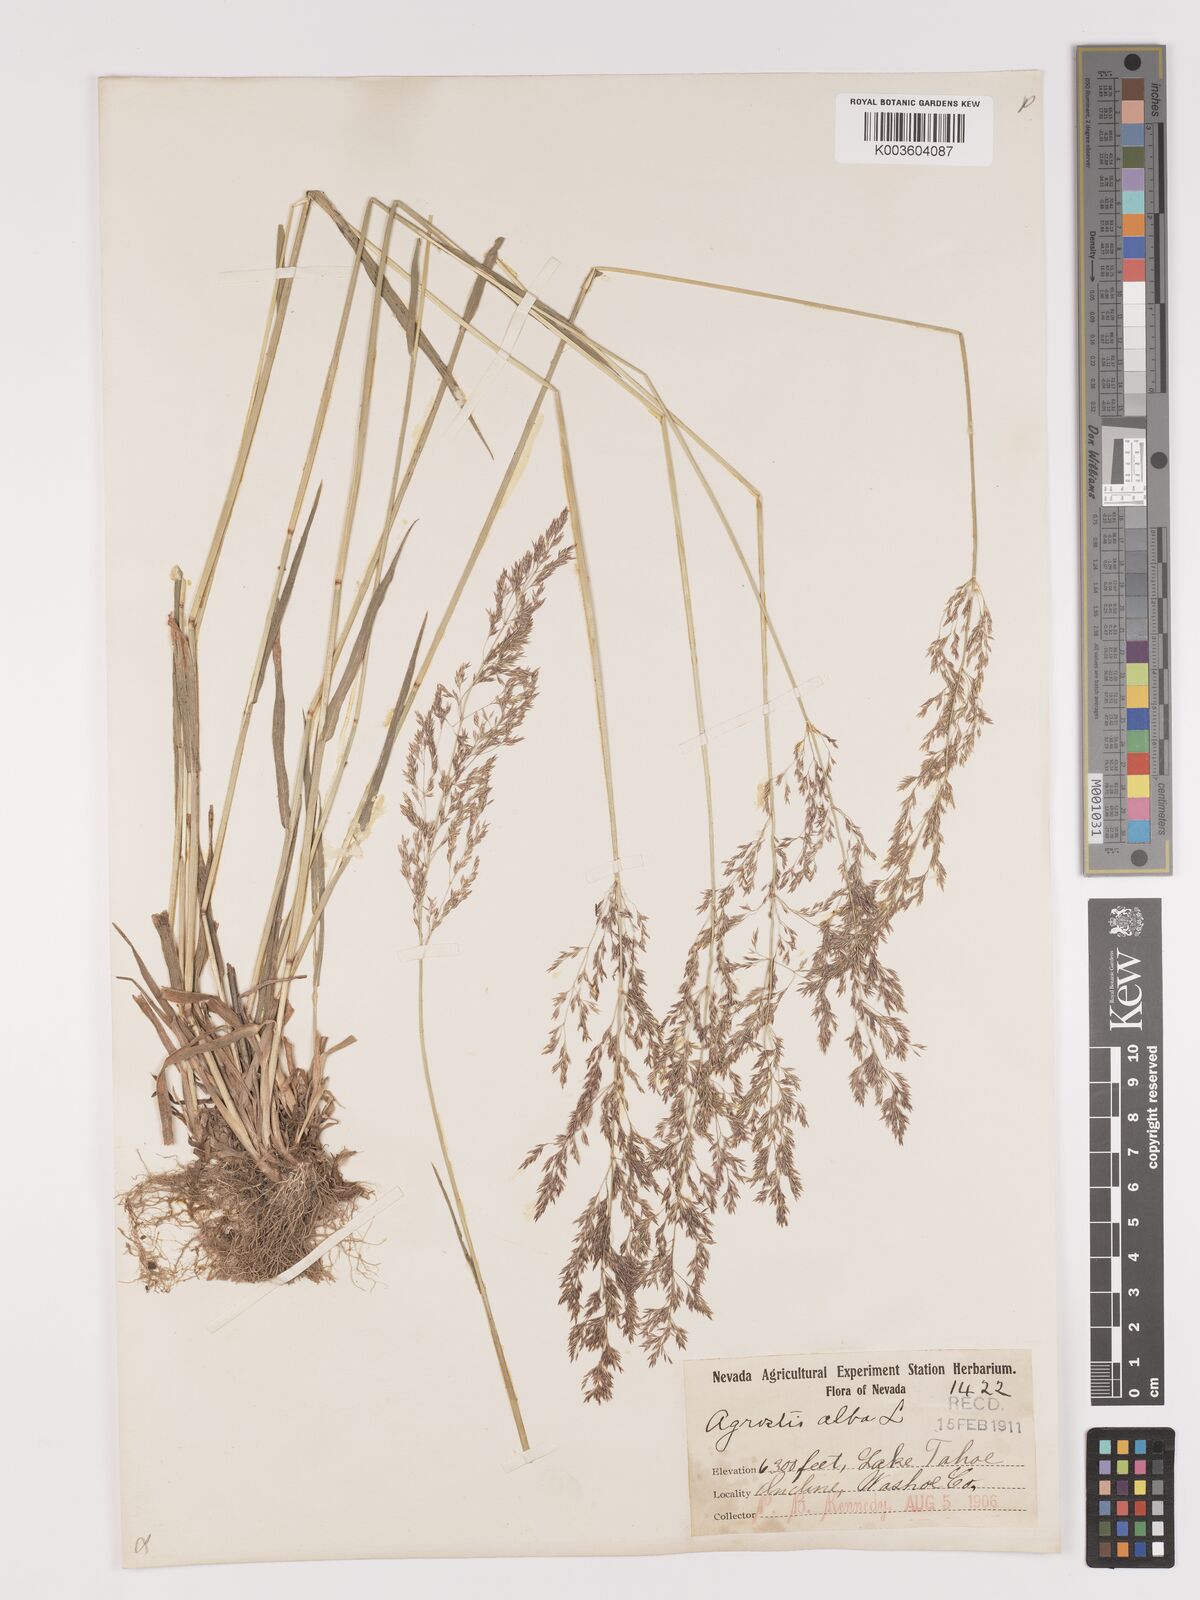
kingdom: Plantae
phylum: Tracheophyta
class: Liliopsida
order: Poales
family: Poaceae
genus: Agrostis
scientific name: Agrostis gigantea
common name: Black bent
